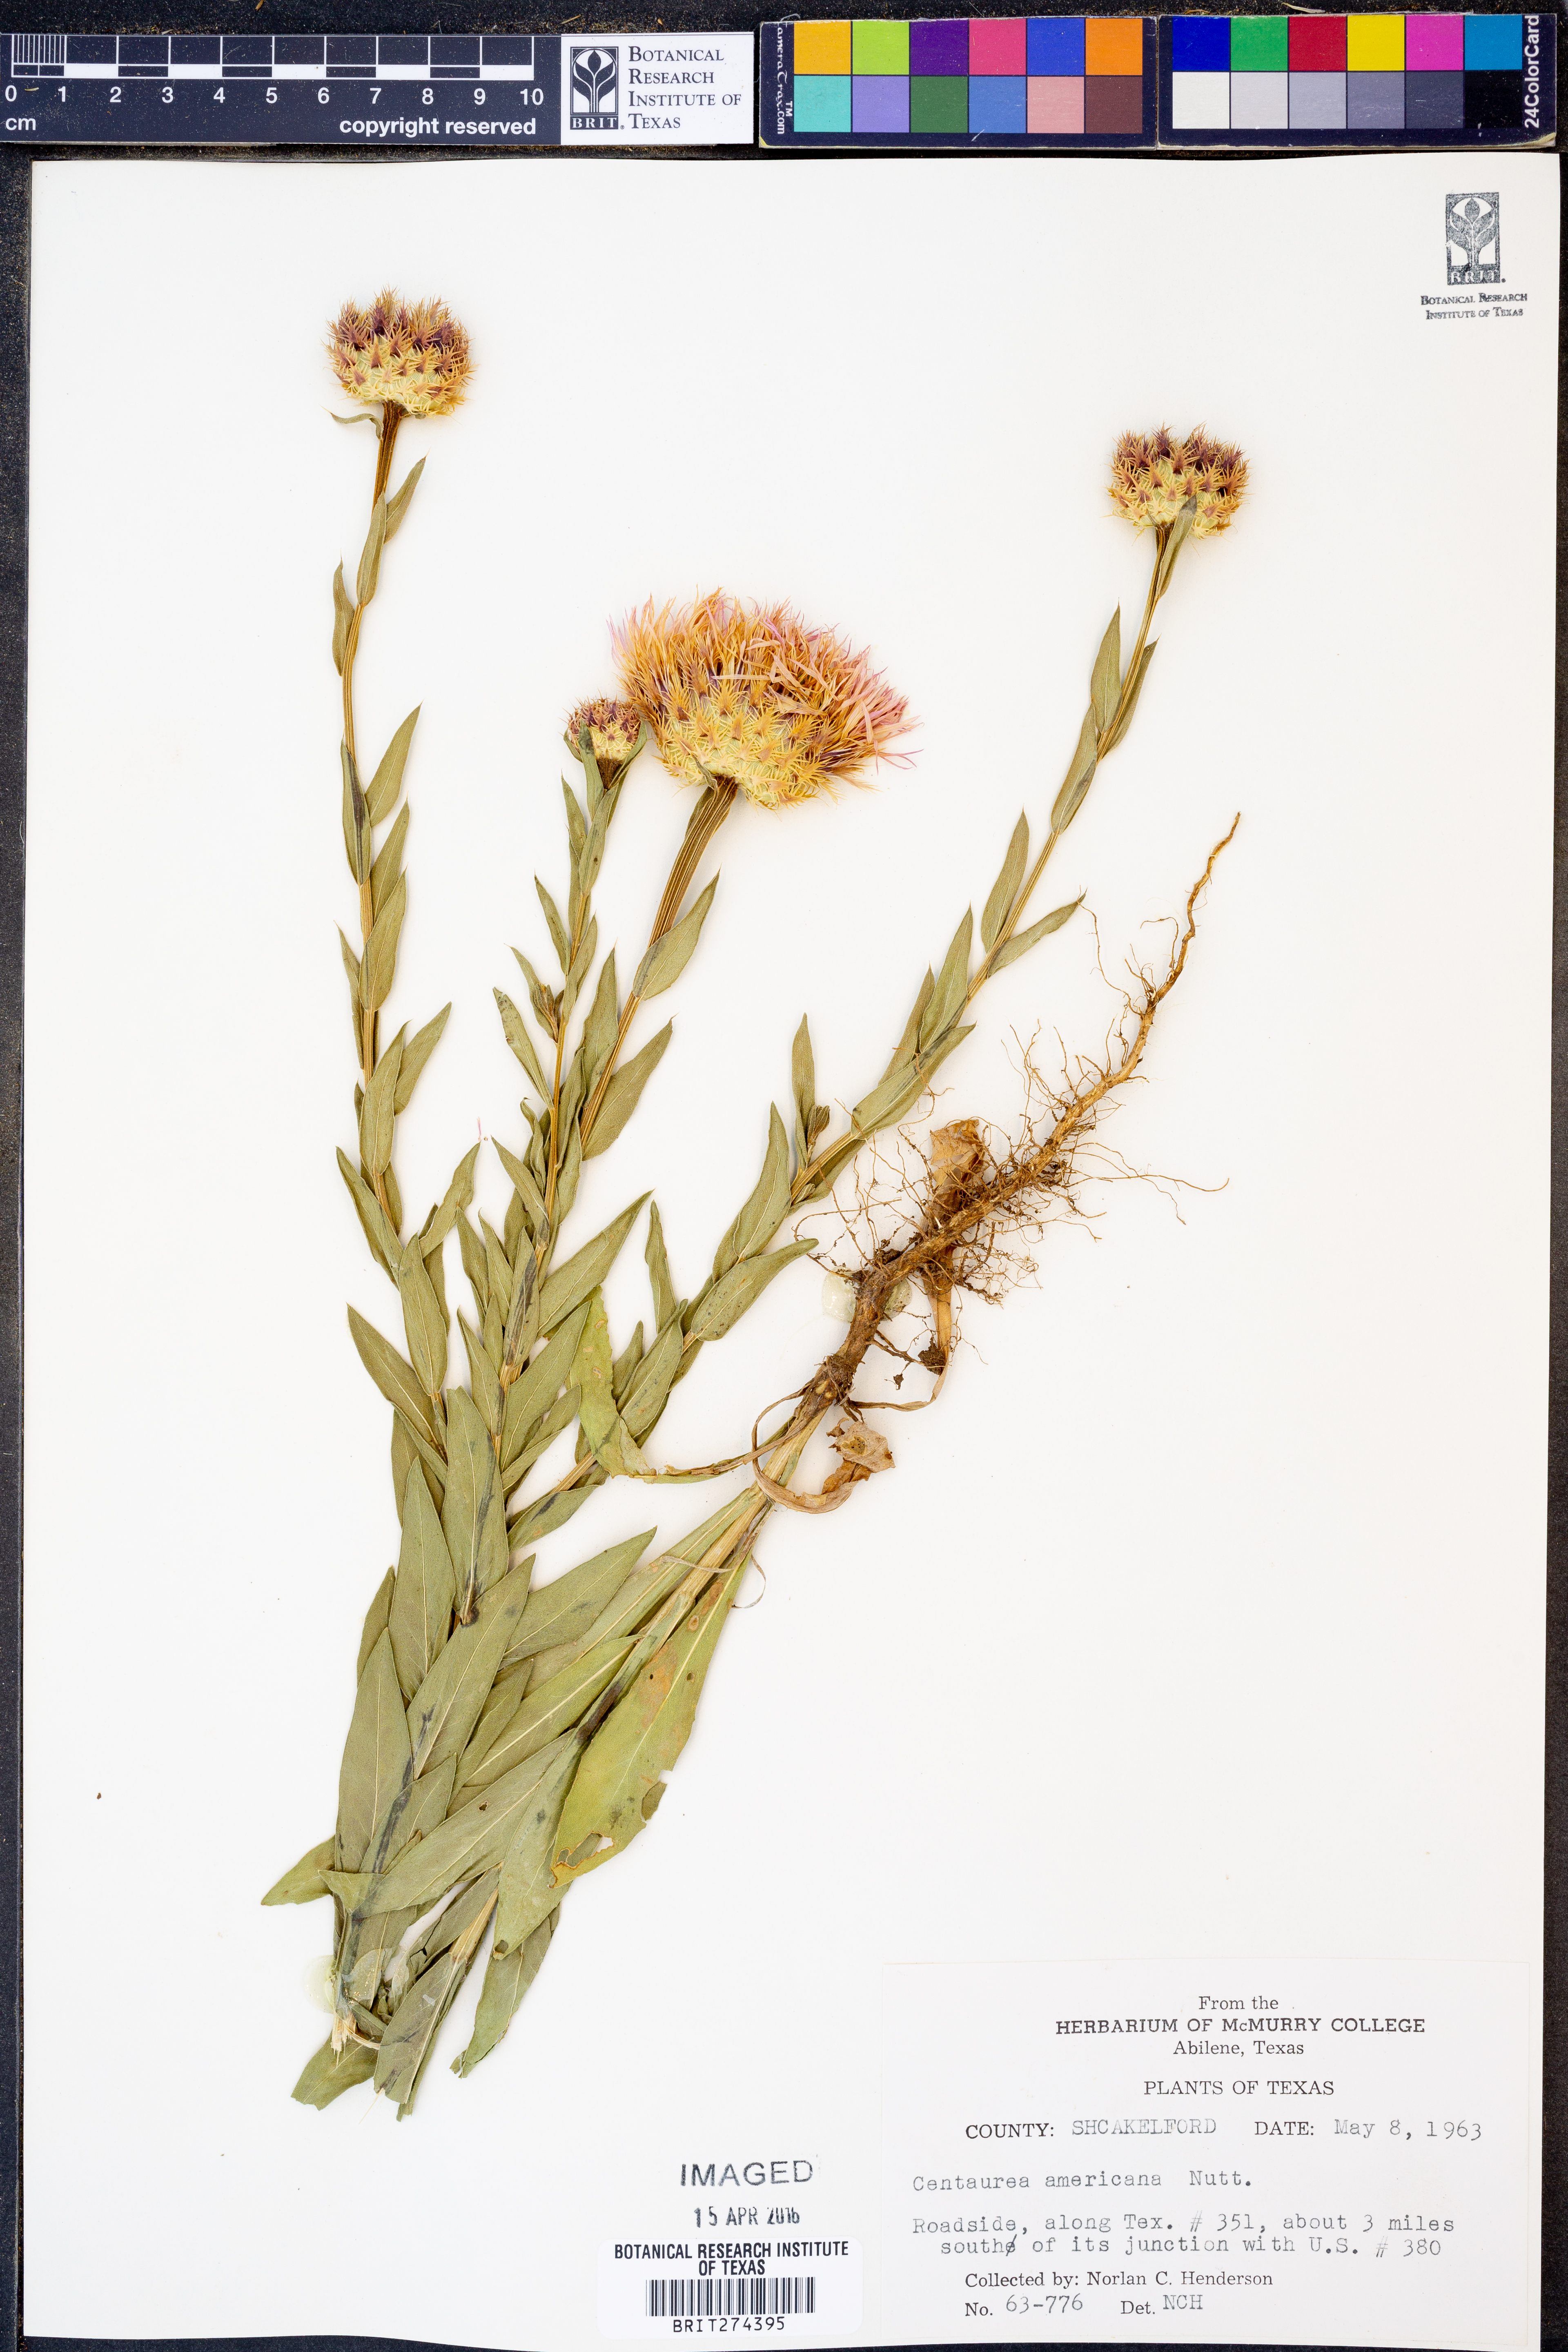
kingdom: Plantae
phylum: Tracheophyta
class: Magnoliopsida
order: Asterales
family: Asteraceae
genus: Plectocephalus
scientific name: Plectocephalus americanus
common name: American basket-flower
